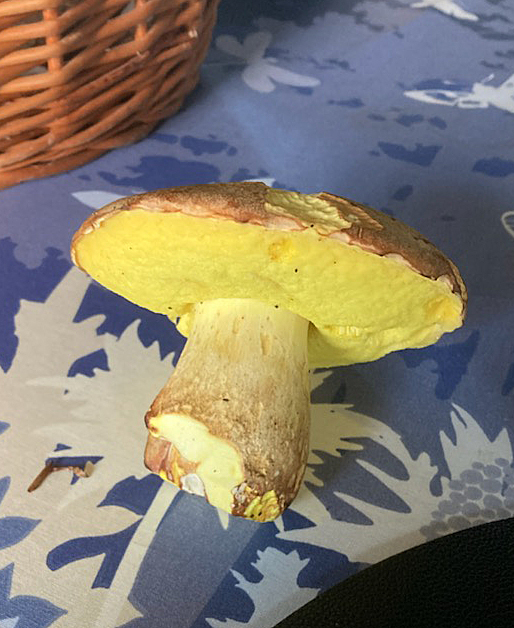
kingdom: Fungi
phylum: Basidiomycota
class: Agaricomycetes
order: Boletales
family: Boletaceae
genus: Butyriboletus
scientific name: Butyriboletus appendiculatus
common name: tenstokket rørhat
